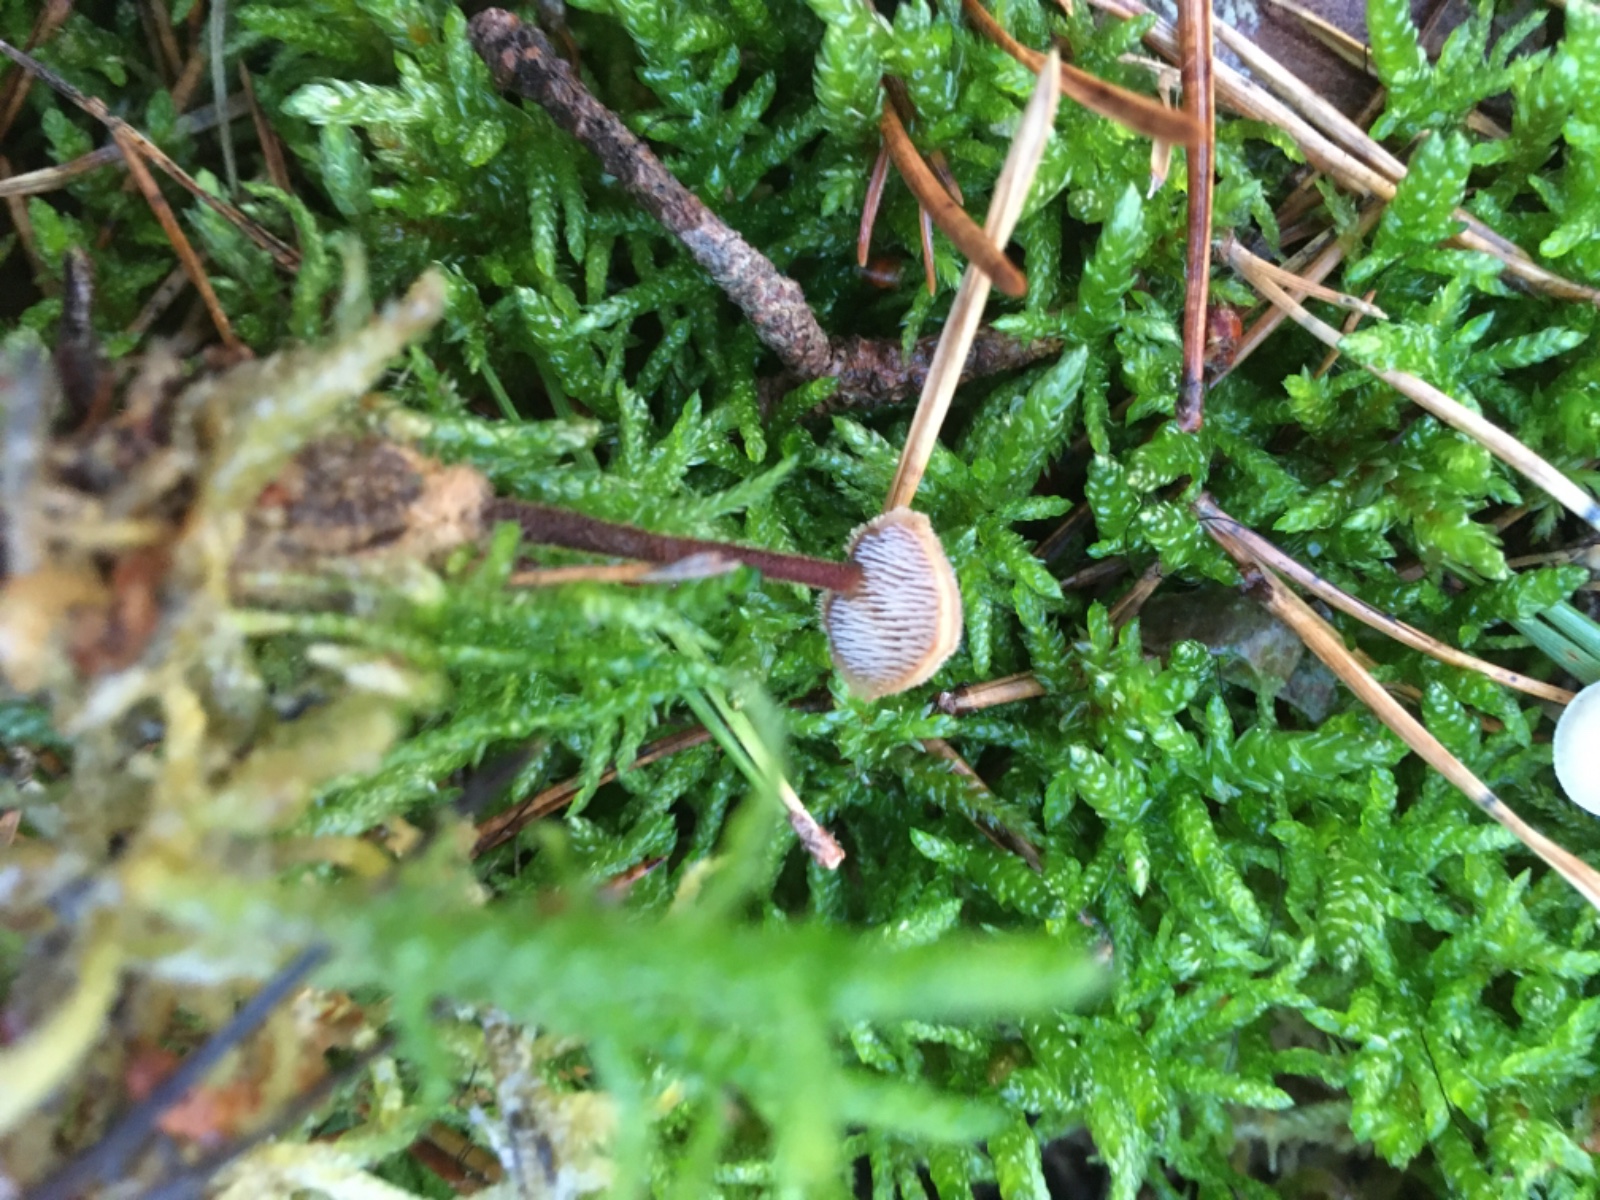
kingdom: Fungi
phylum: Basidiomycota
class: Agaricomycetes
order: Russulales
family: Auriscalpiaceae
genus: Auriscalpium
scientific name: Auriscalpium vulgare
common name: koglepigsvamp
